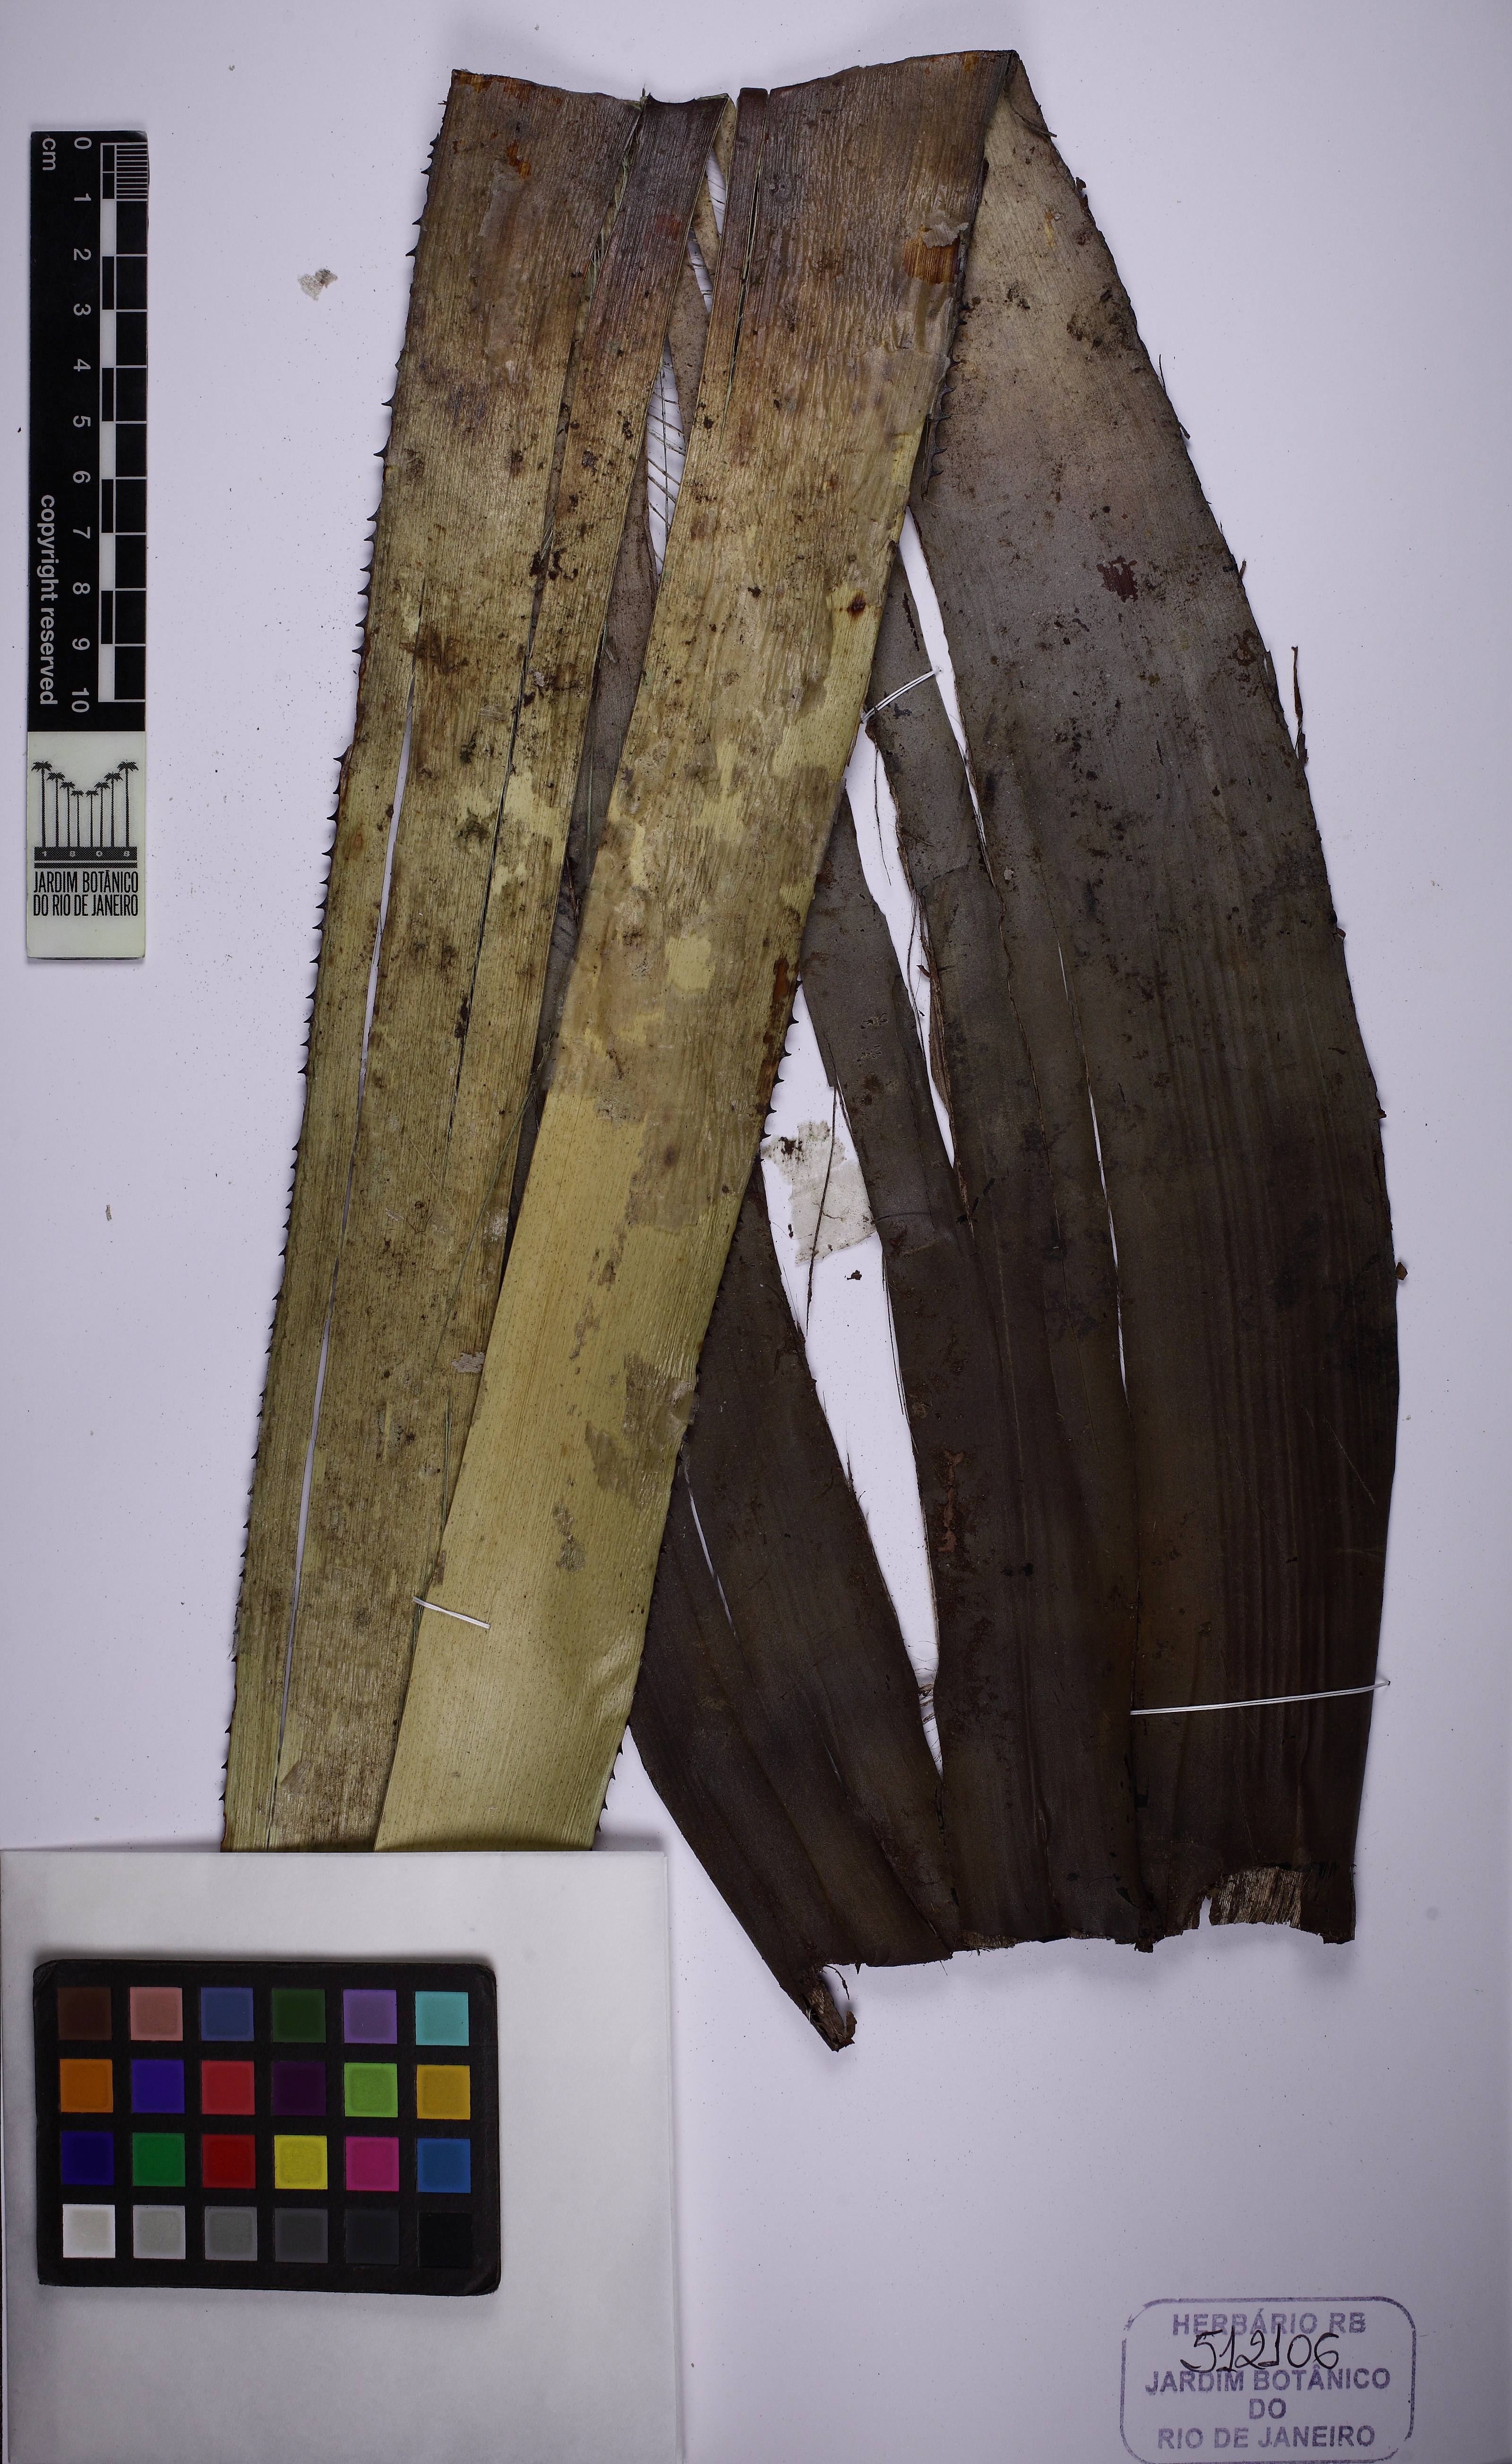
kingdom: Plantae
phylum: Tracheophyta
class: Liliopsida
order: Poales
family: Bromeliaceae
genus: Aechmea
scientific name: Aechmea conifera
